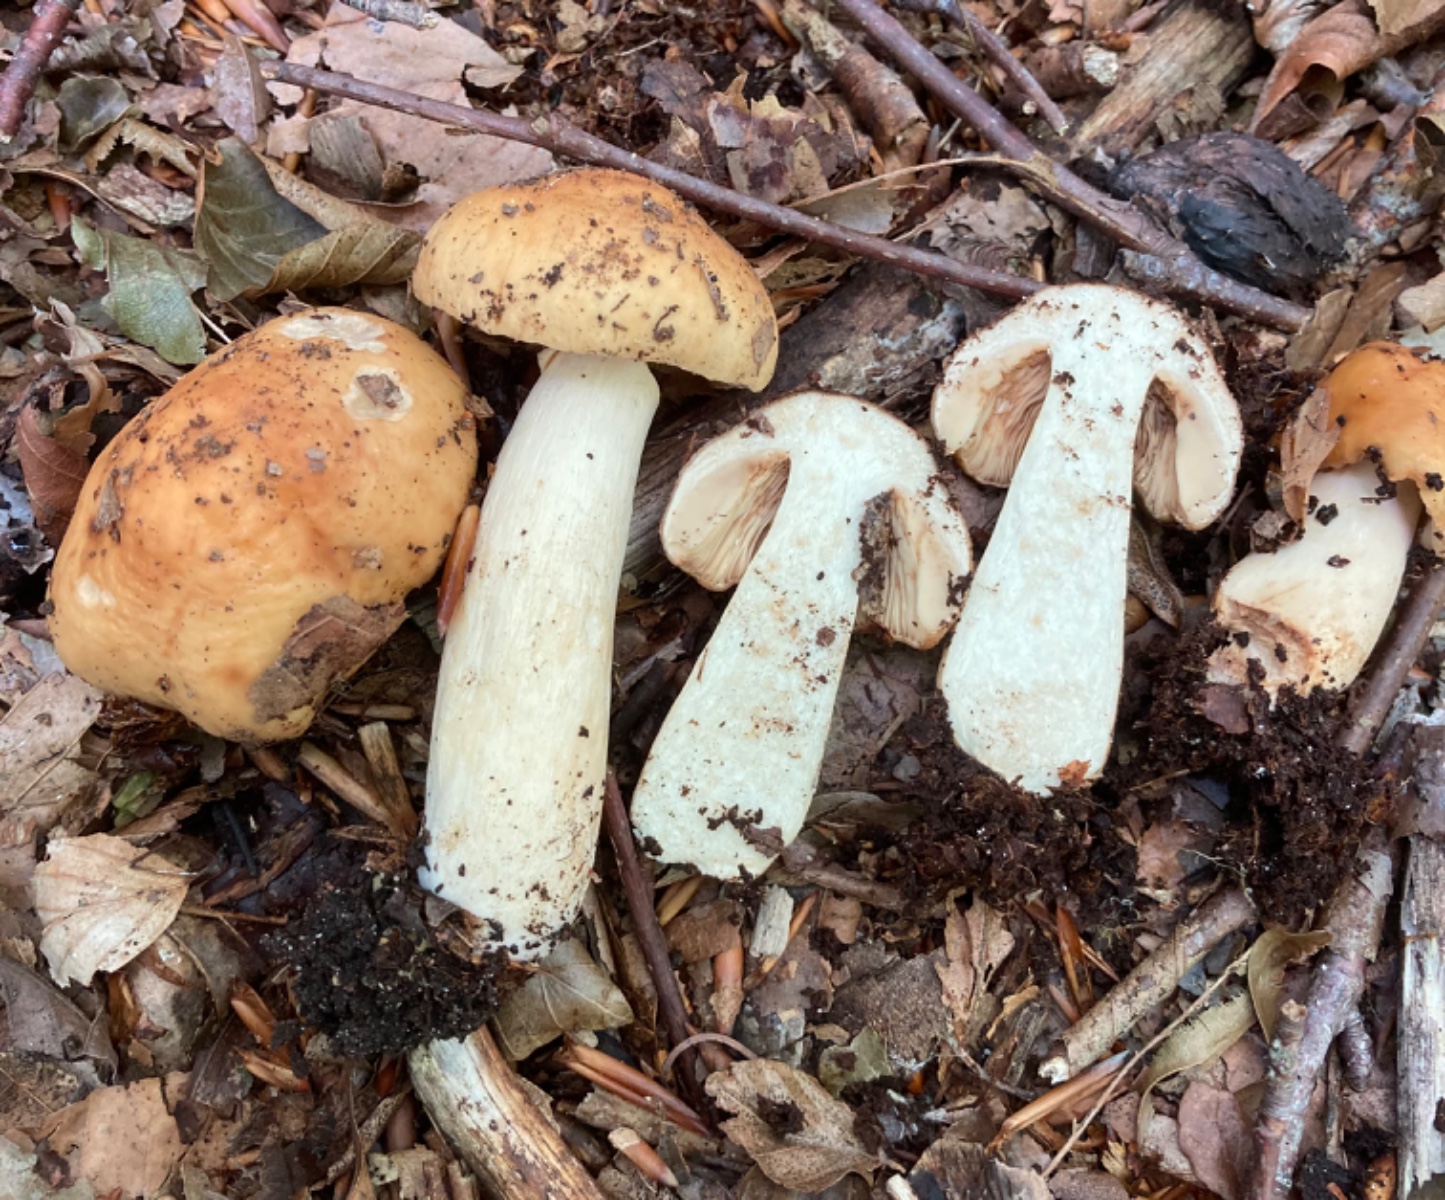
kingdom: Fungi
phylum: Basidiomycota
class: Agaricomycetes
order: Russulales
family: Russulaceae
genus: Russula
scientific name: Russula grata
